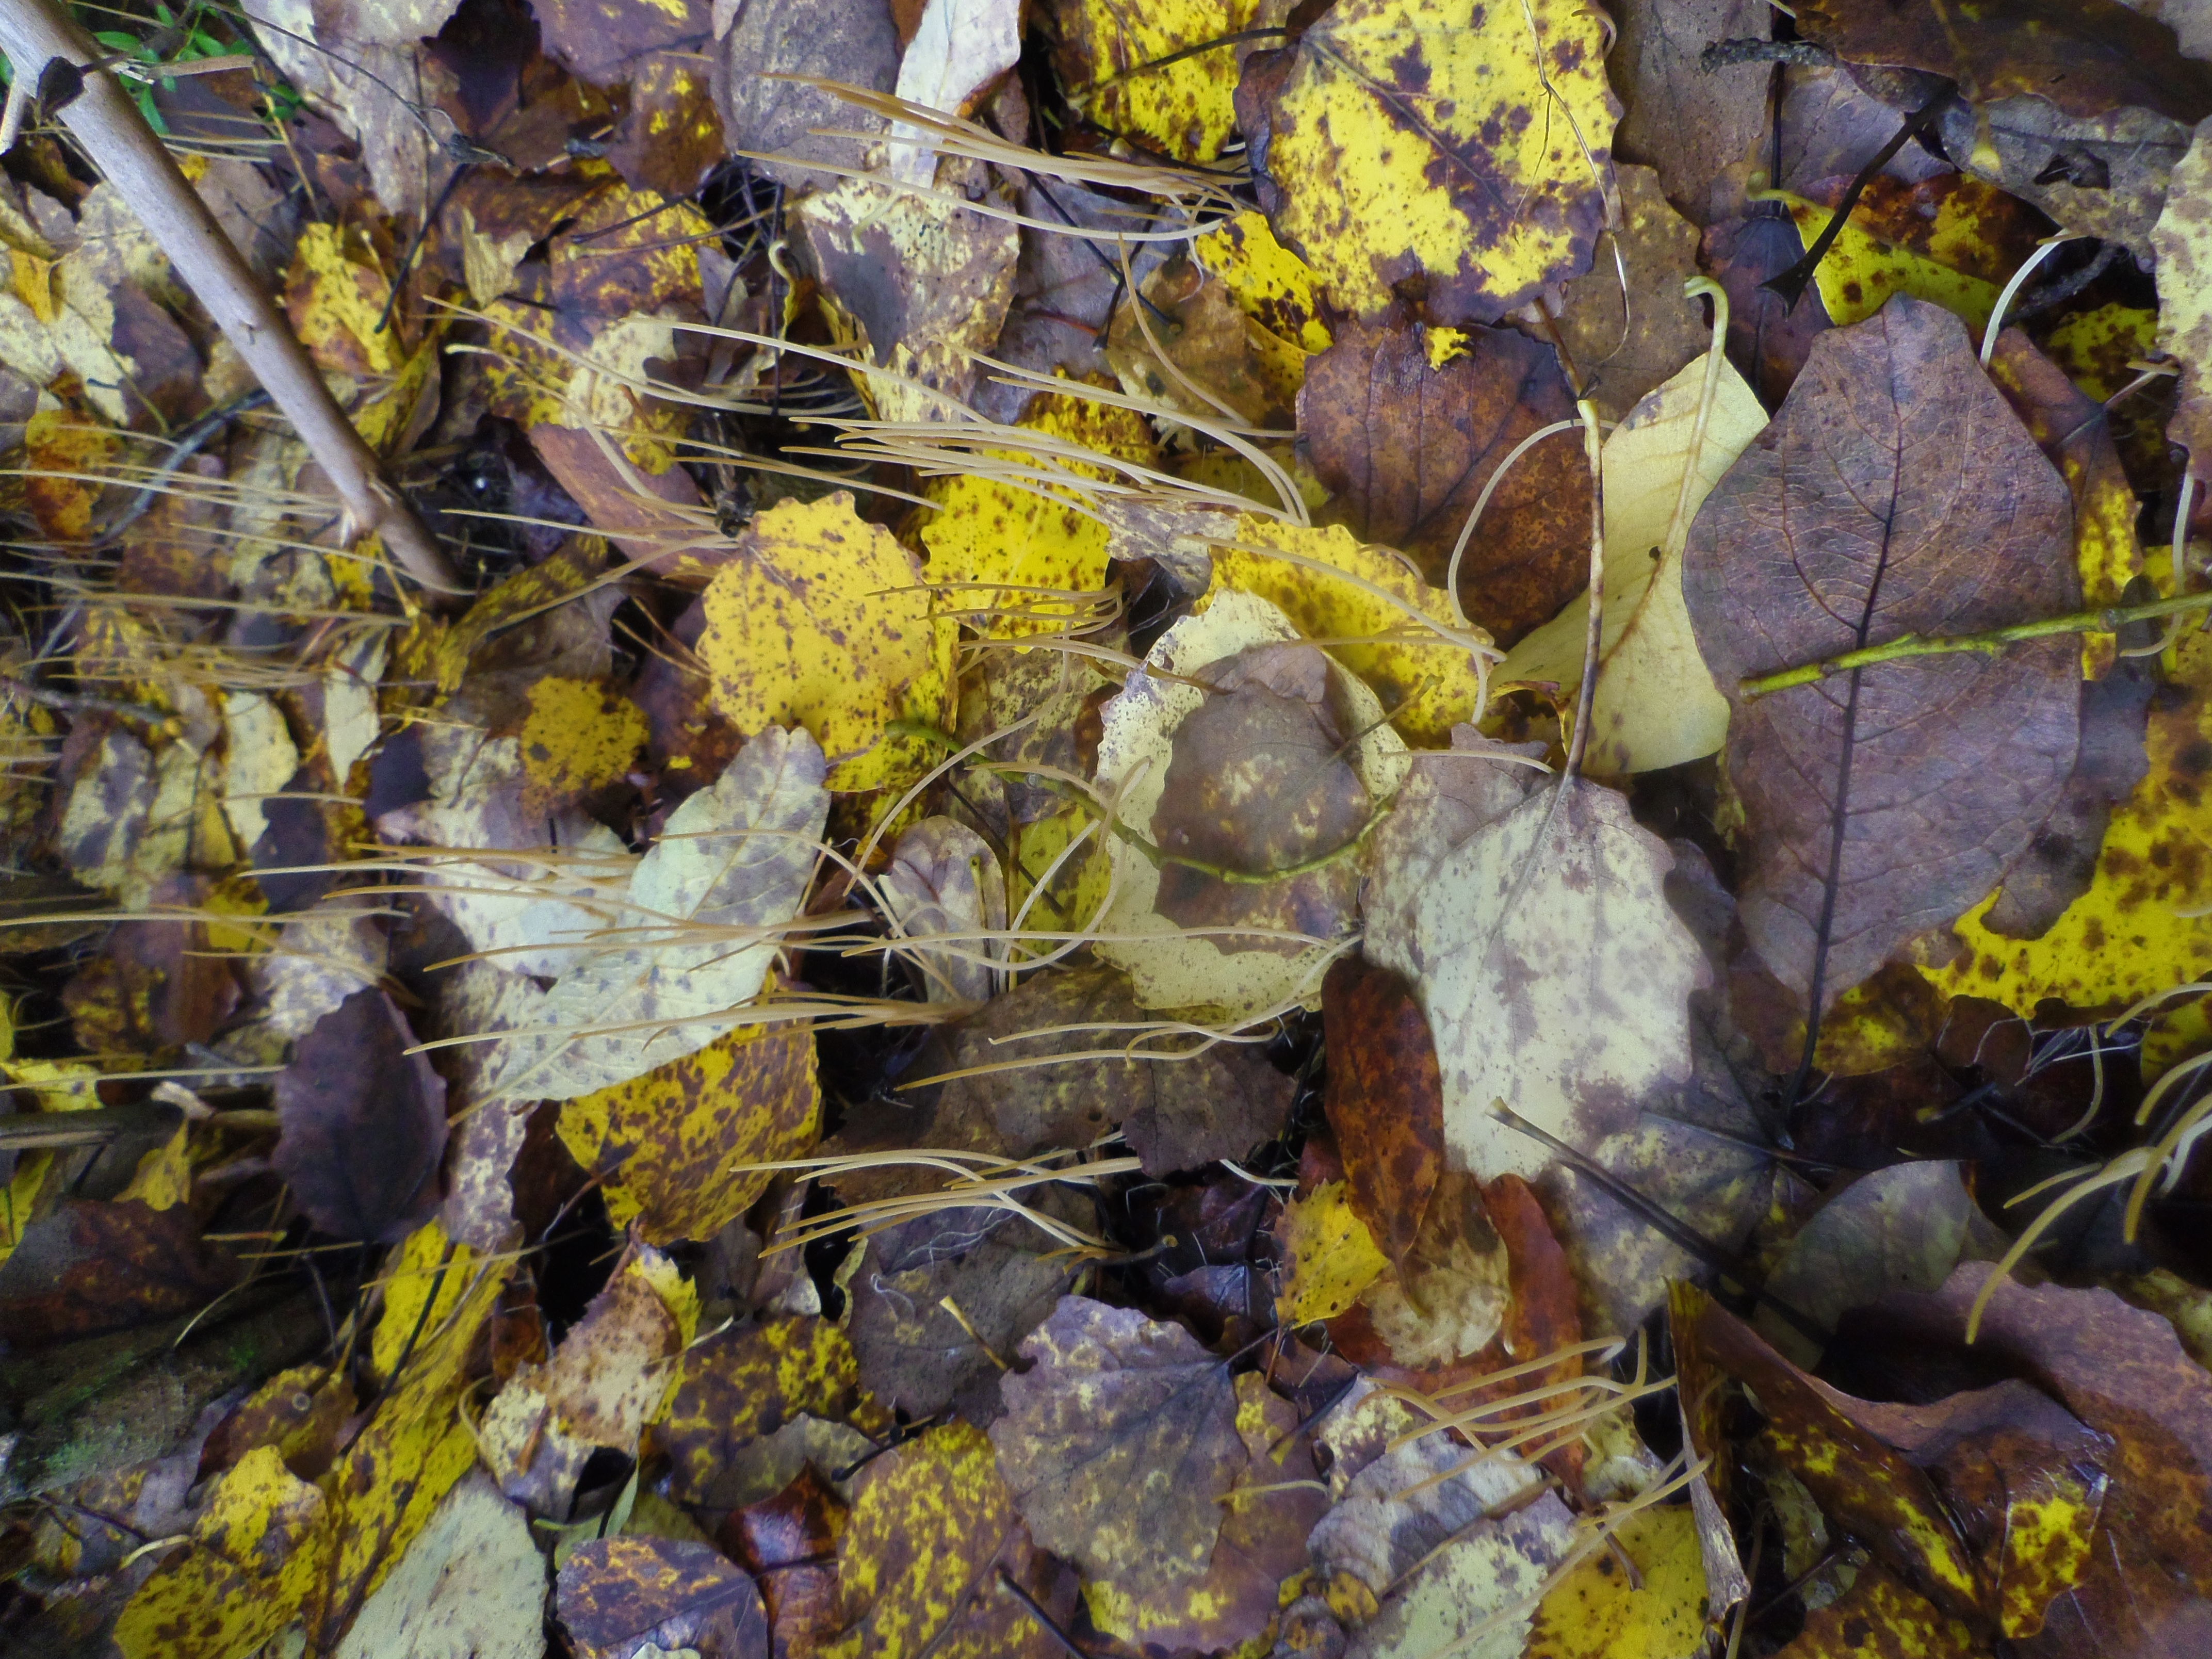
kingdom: Fungi
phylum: Basidiomycota
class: Agaricomycetes
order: Agaricales
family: Typhulaceae
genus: Typhula
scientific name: Typhula juncea
